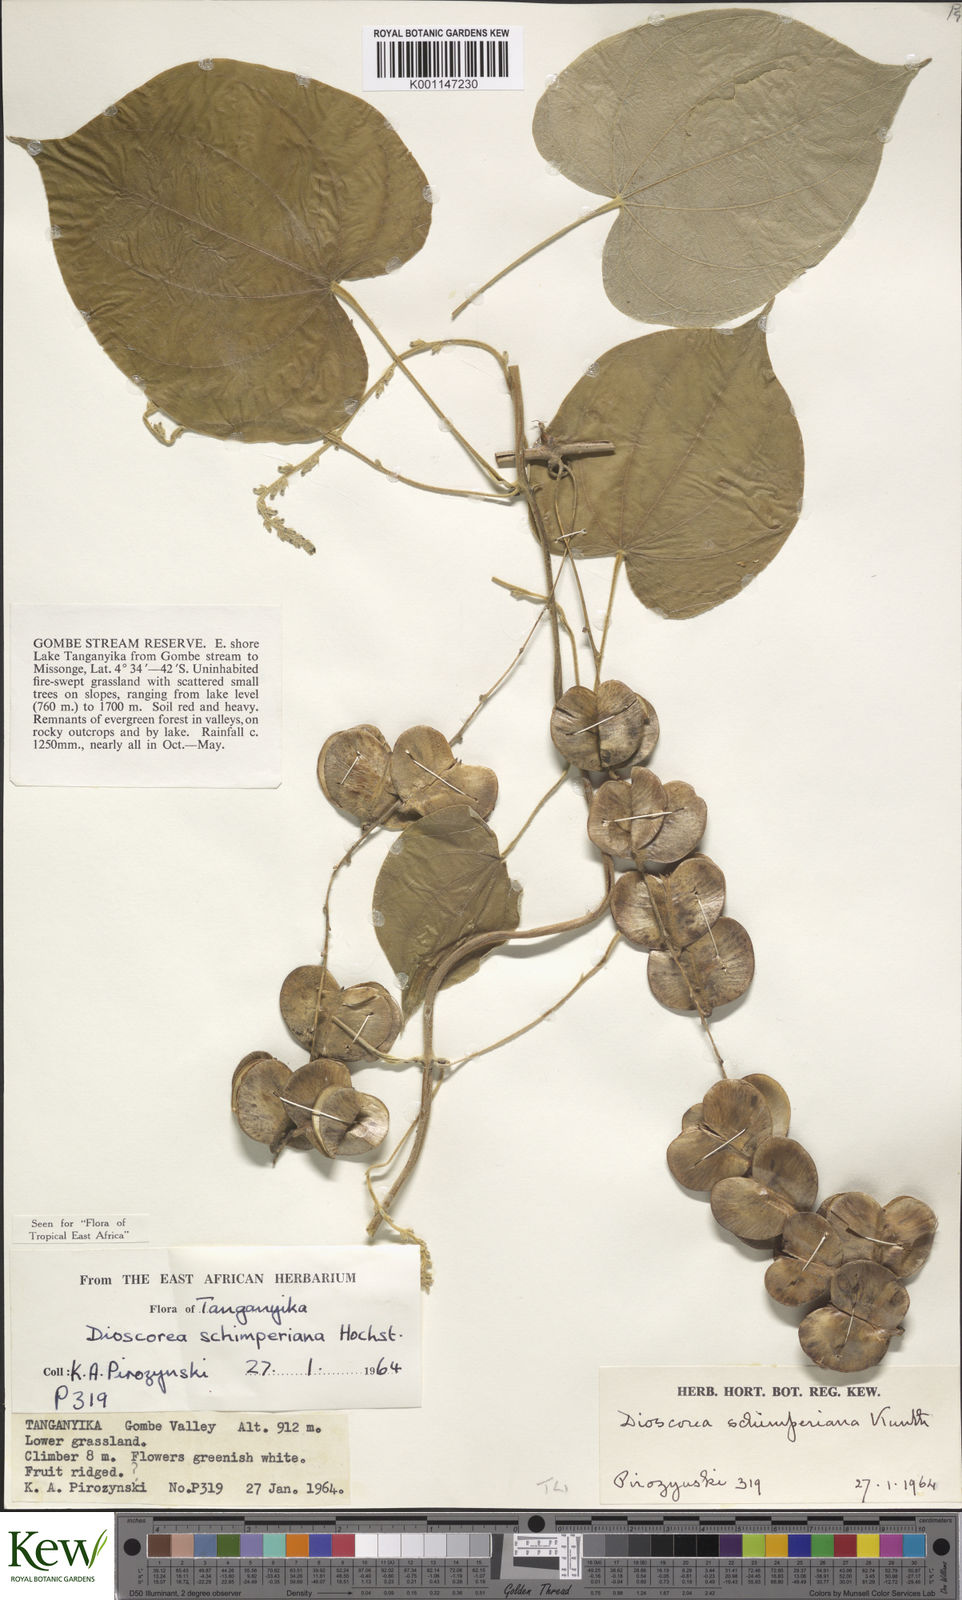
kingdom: Plantae
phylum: Tracheophyta
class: Liliopsida
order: Dioscoreales
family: Dioscoreaceae
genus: Dioscorea
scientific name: Dioscorea schimperiana
